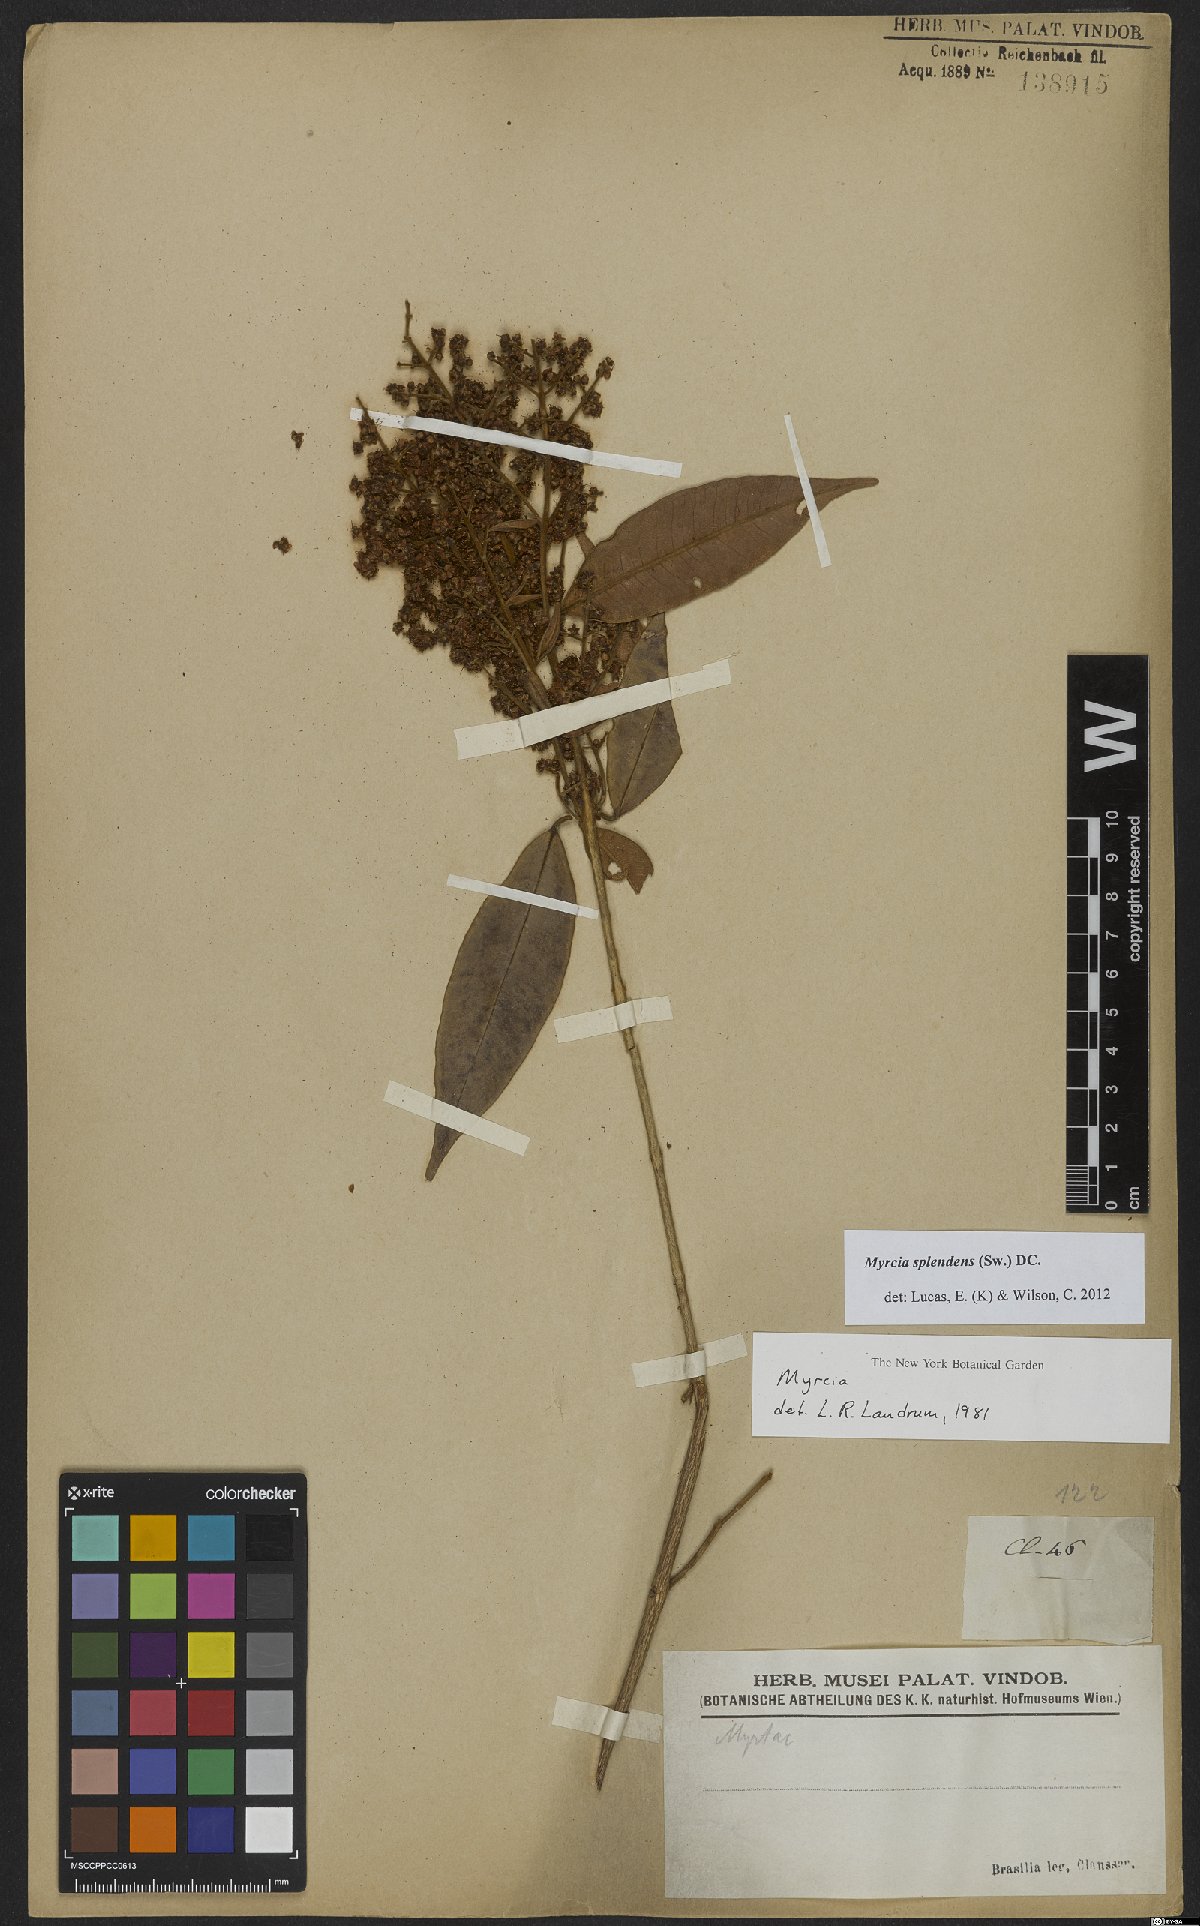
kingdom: Plantae
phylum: Tracheophyta
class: Magnoliopsida
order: Myrtales
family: Myrtaceae
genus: Myrcia
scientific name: Myrcia splendens
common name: Surinam cherry
